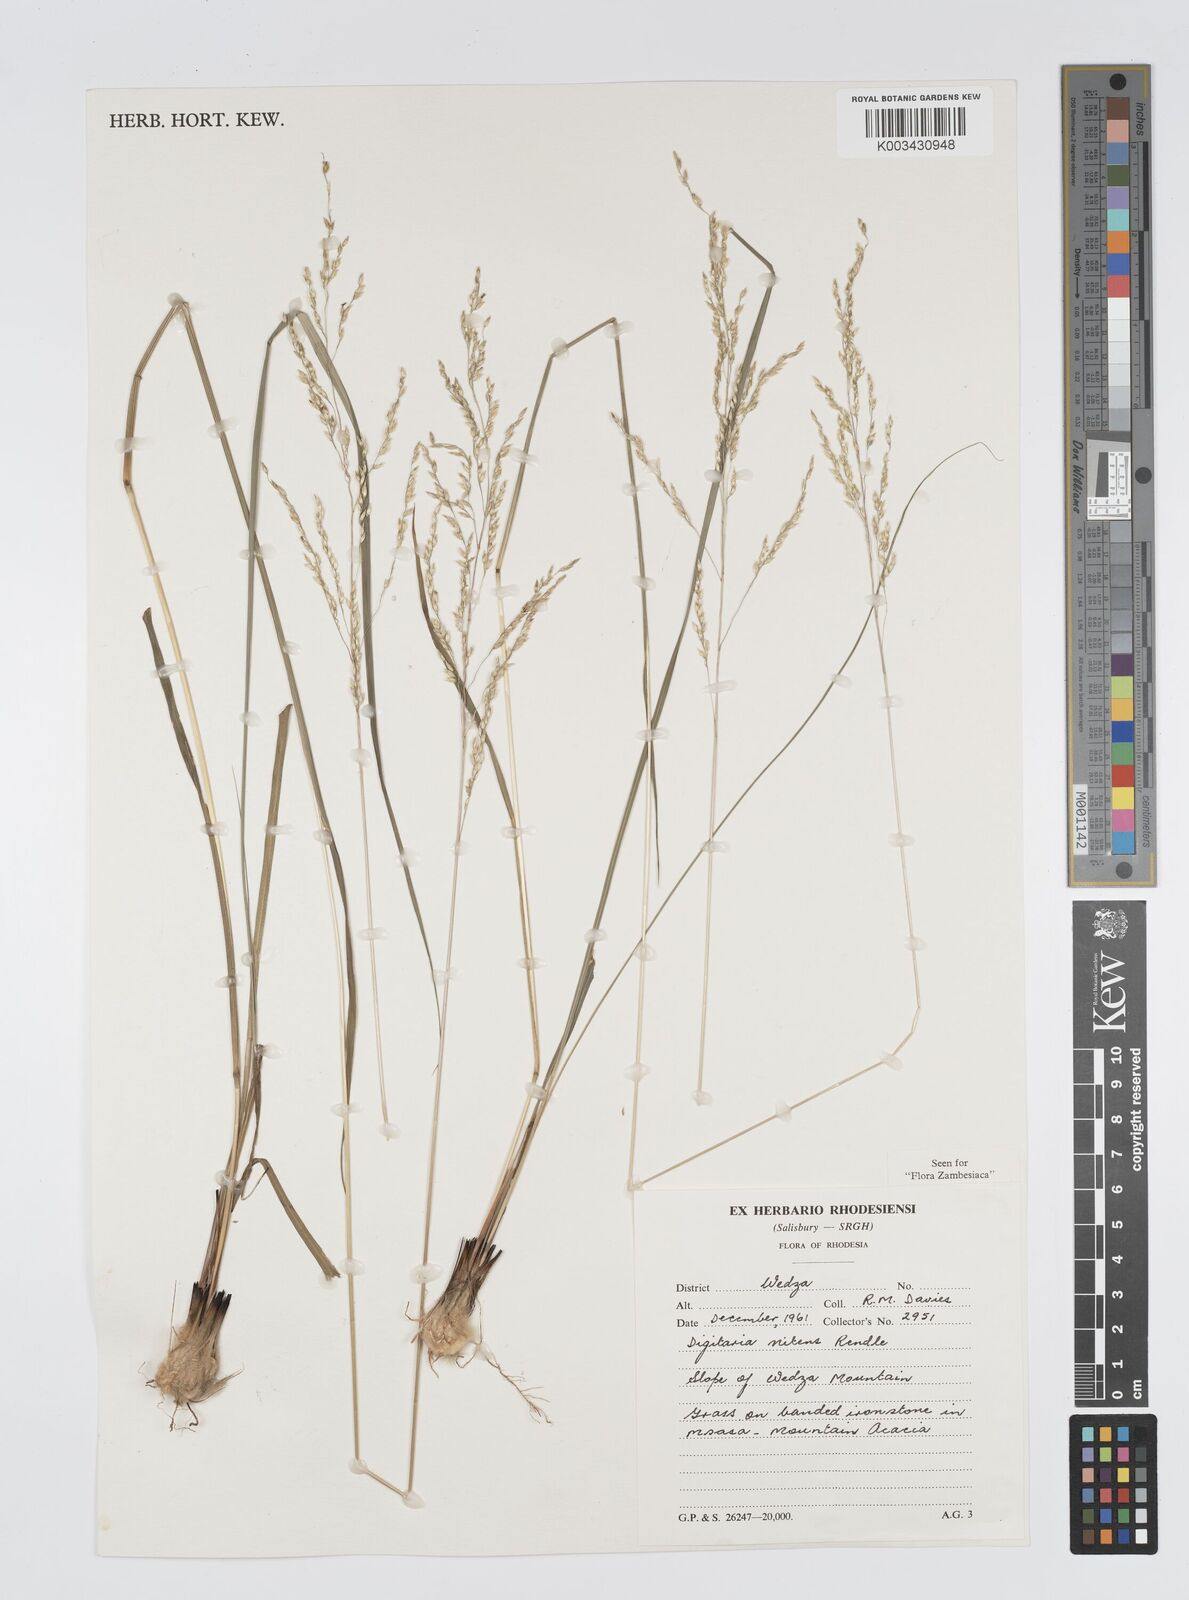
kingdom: Plantae
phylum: Tracheophyta
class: Liliopsida
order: Poales
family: Poaceae
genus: Digitaria
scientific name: Digitaria flaccida
